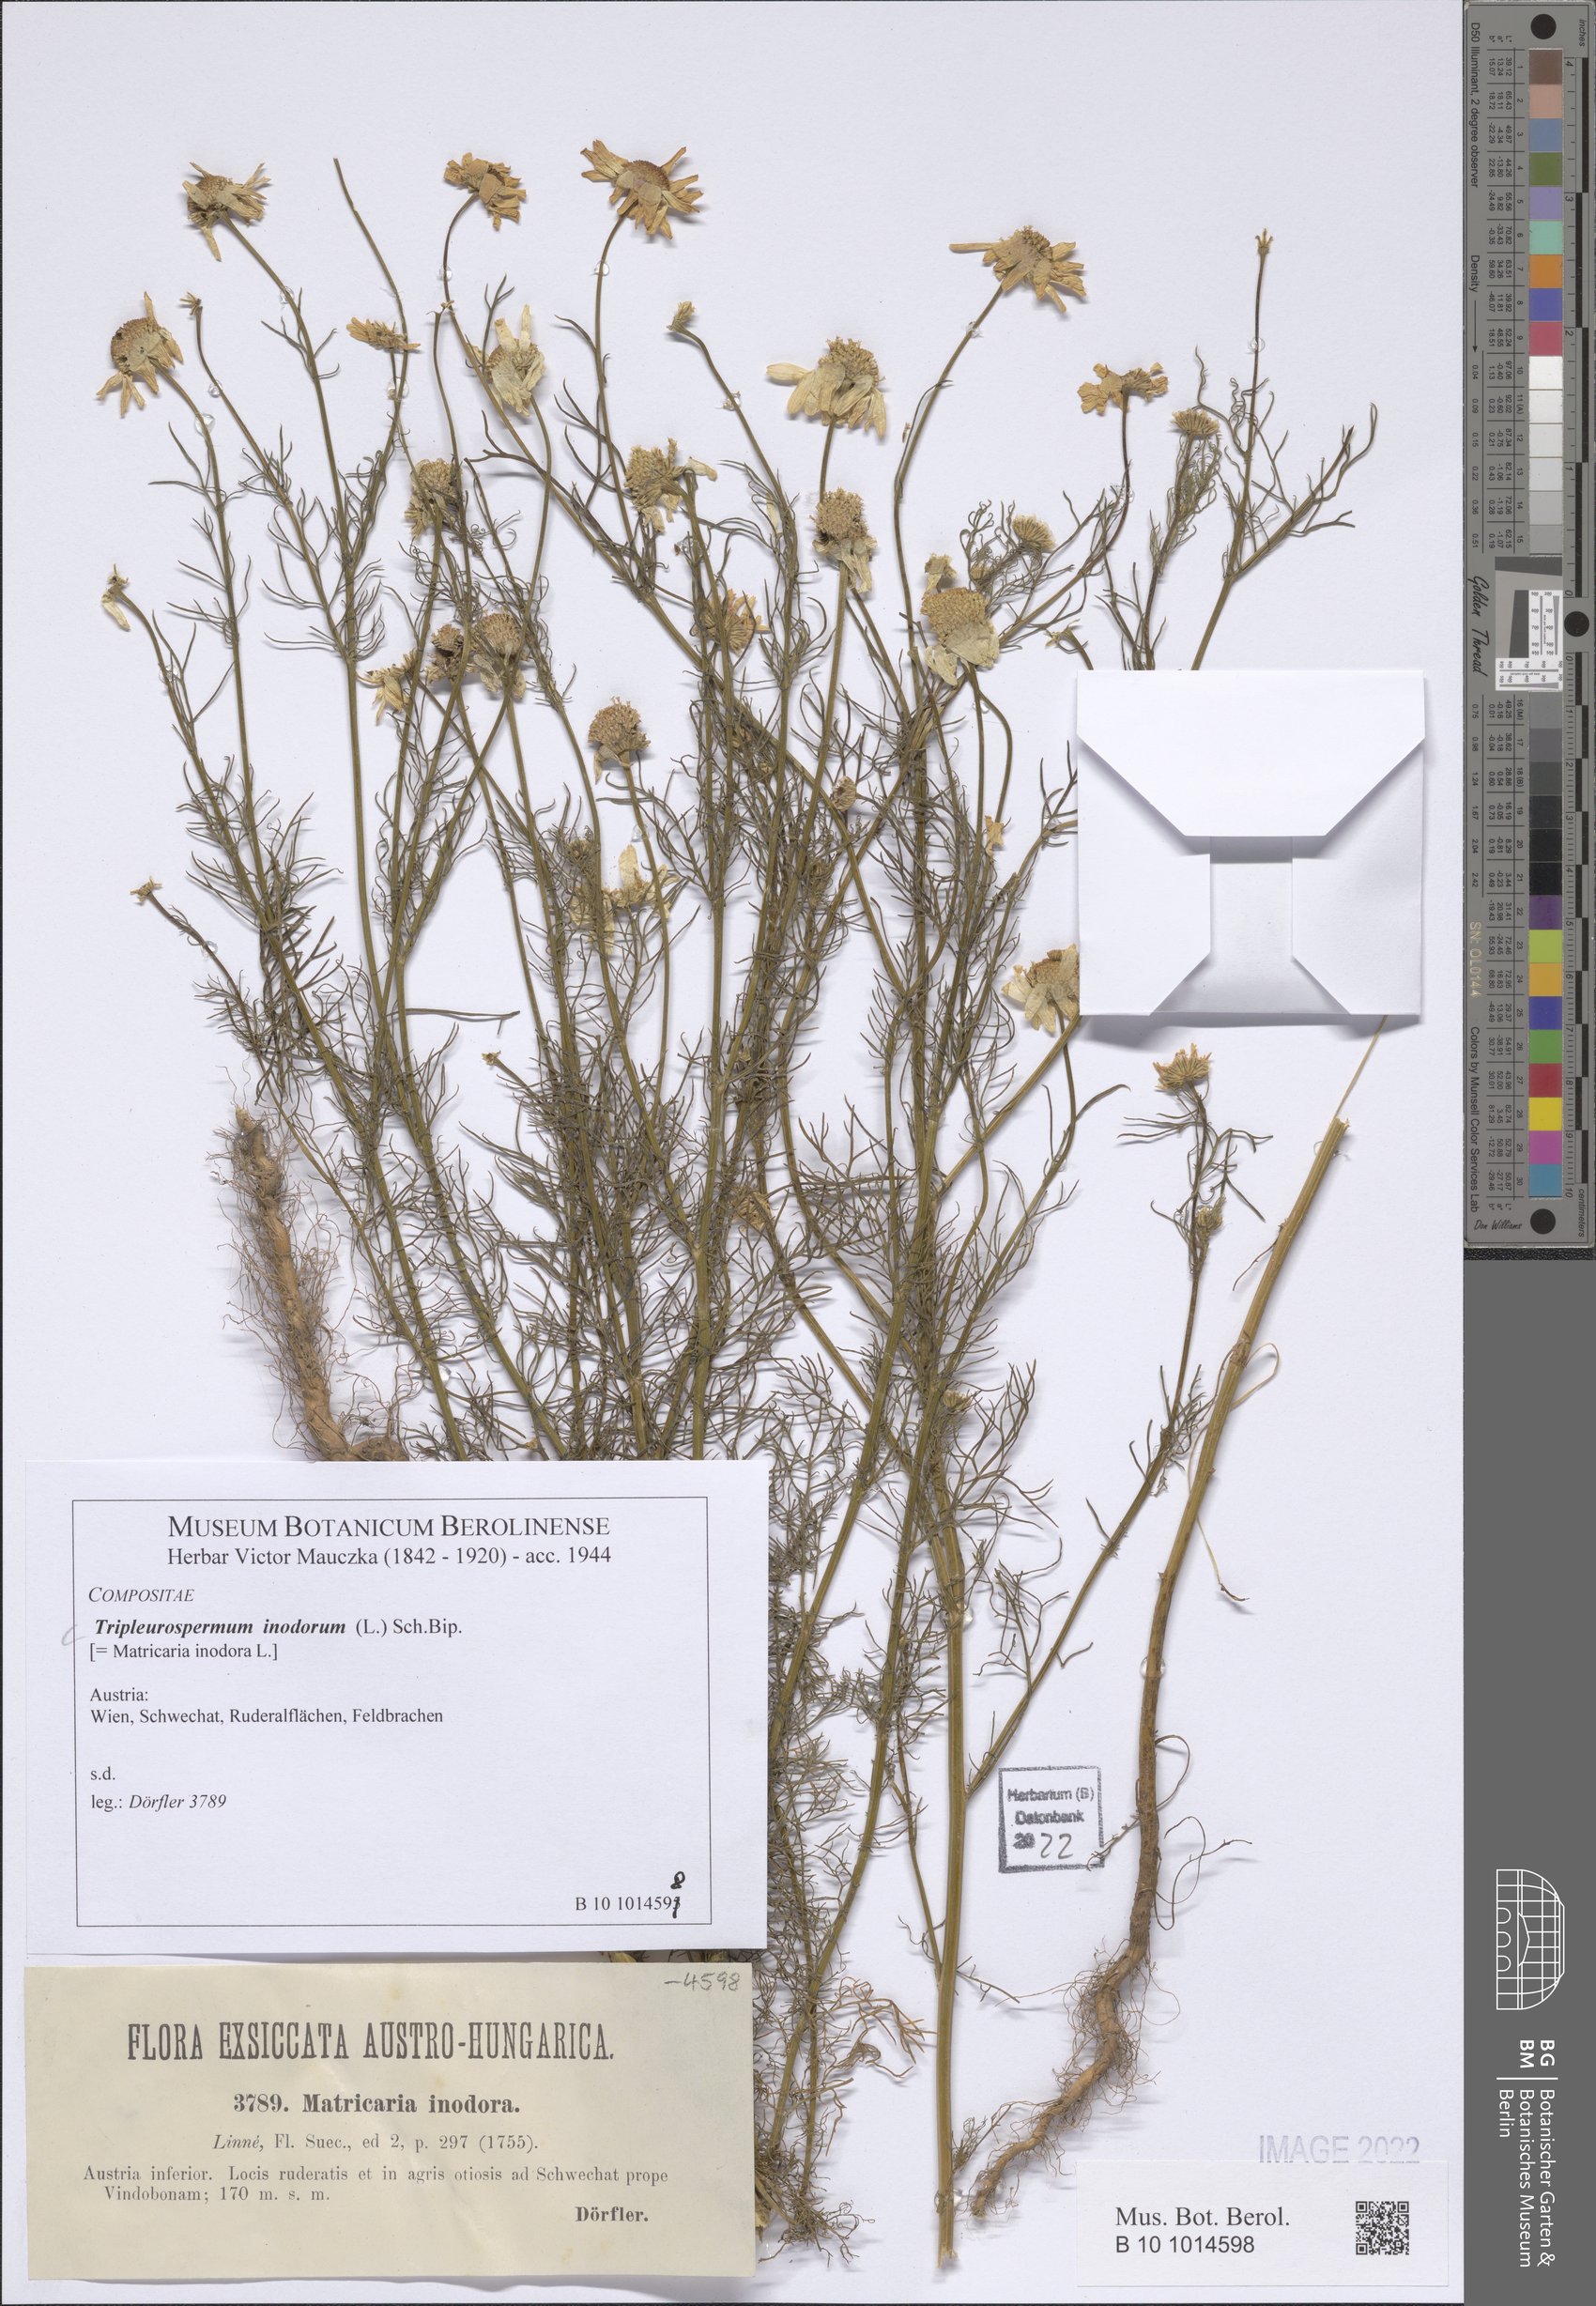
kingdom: Plantae
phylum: Tracheophyta
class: Magnoliopsida
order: Asterales
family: Asteraceae
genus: Tripleurospermum
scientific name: Tripleurospermum inodorum
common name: Scentless mayweed
